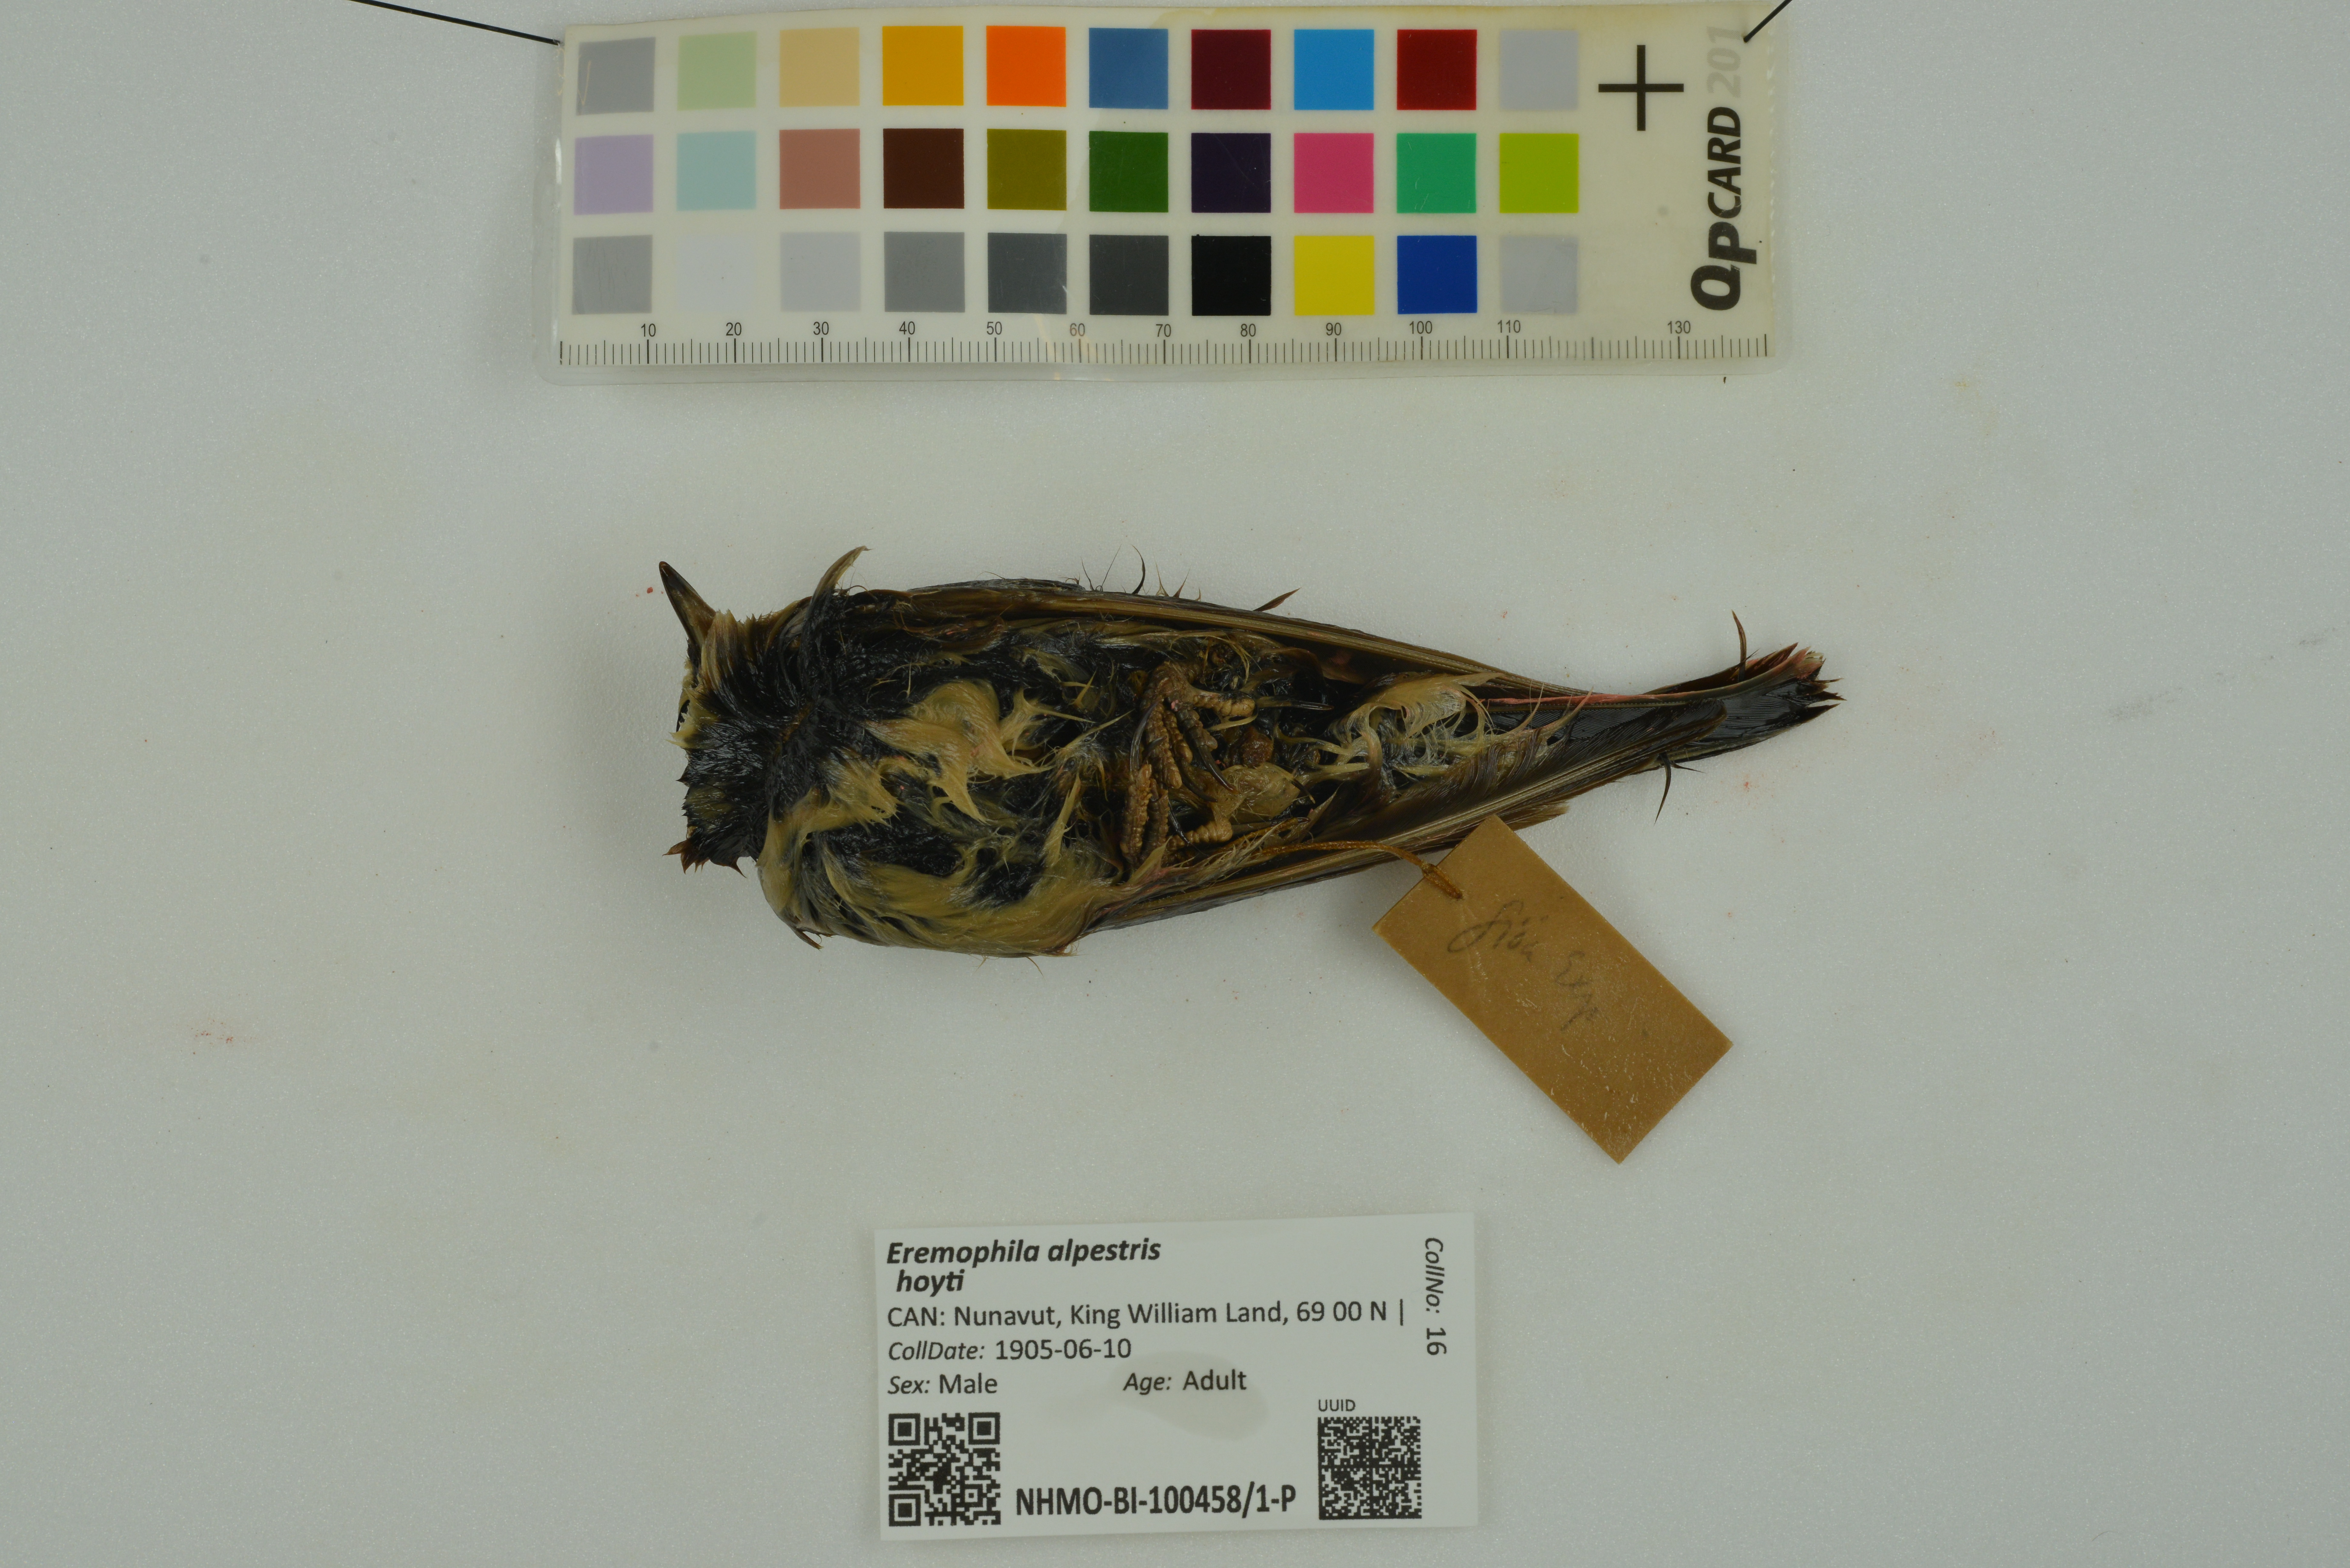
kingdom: Animalia
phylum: Chordata
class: Aves
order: Passeriformes
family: Alaudidae
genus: Eremophila
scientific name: Eremophila alpestris
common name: Horned lark
